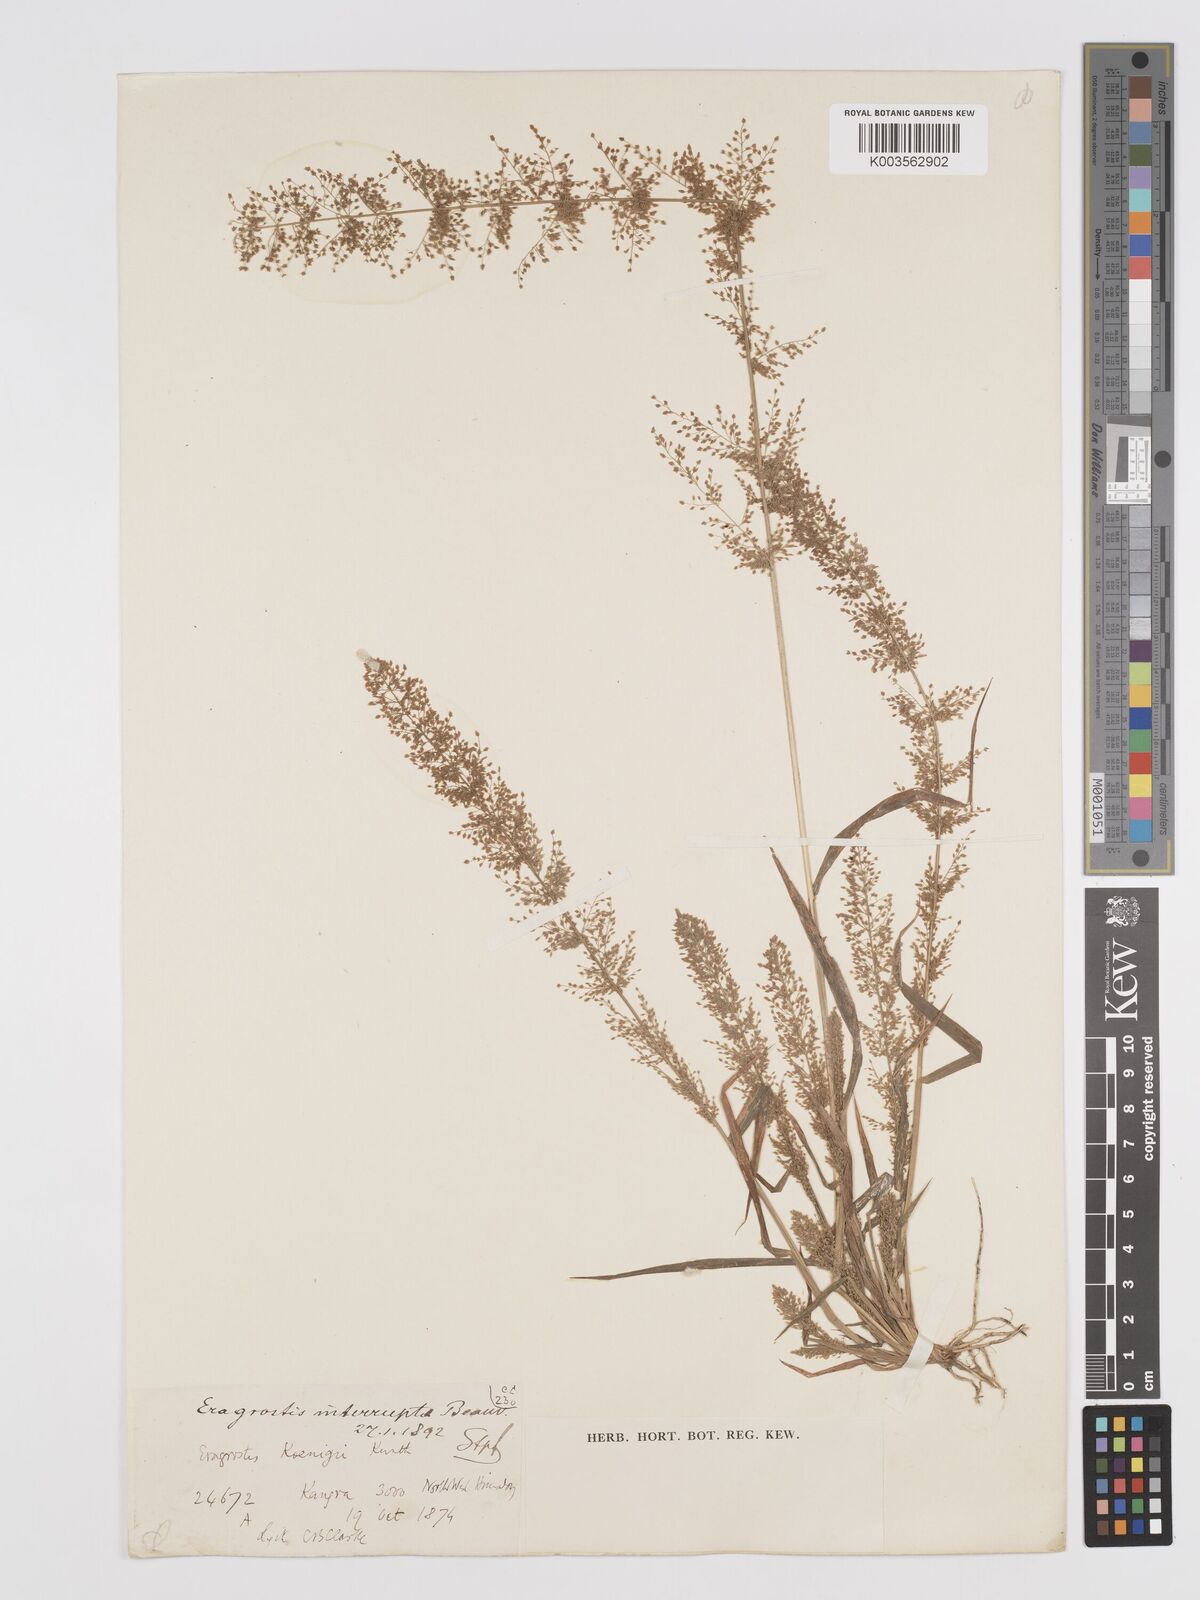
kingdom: Plantae
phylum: Tracheophyta
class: Liliopsida
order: Poales
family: Poaceae
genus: Eragrostis
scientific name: Eragrostis japonica
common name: Pond lovegrass
